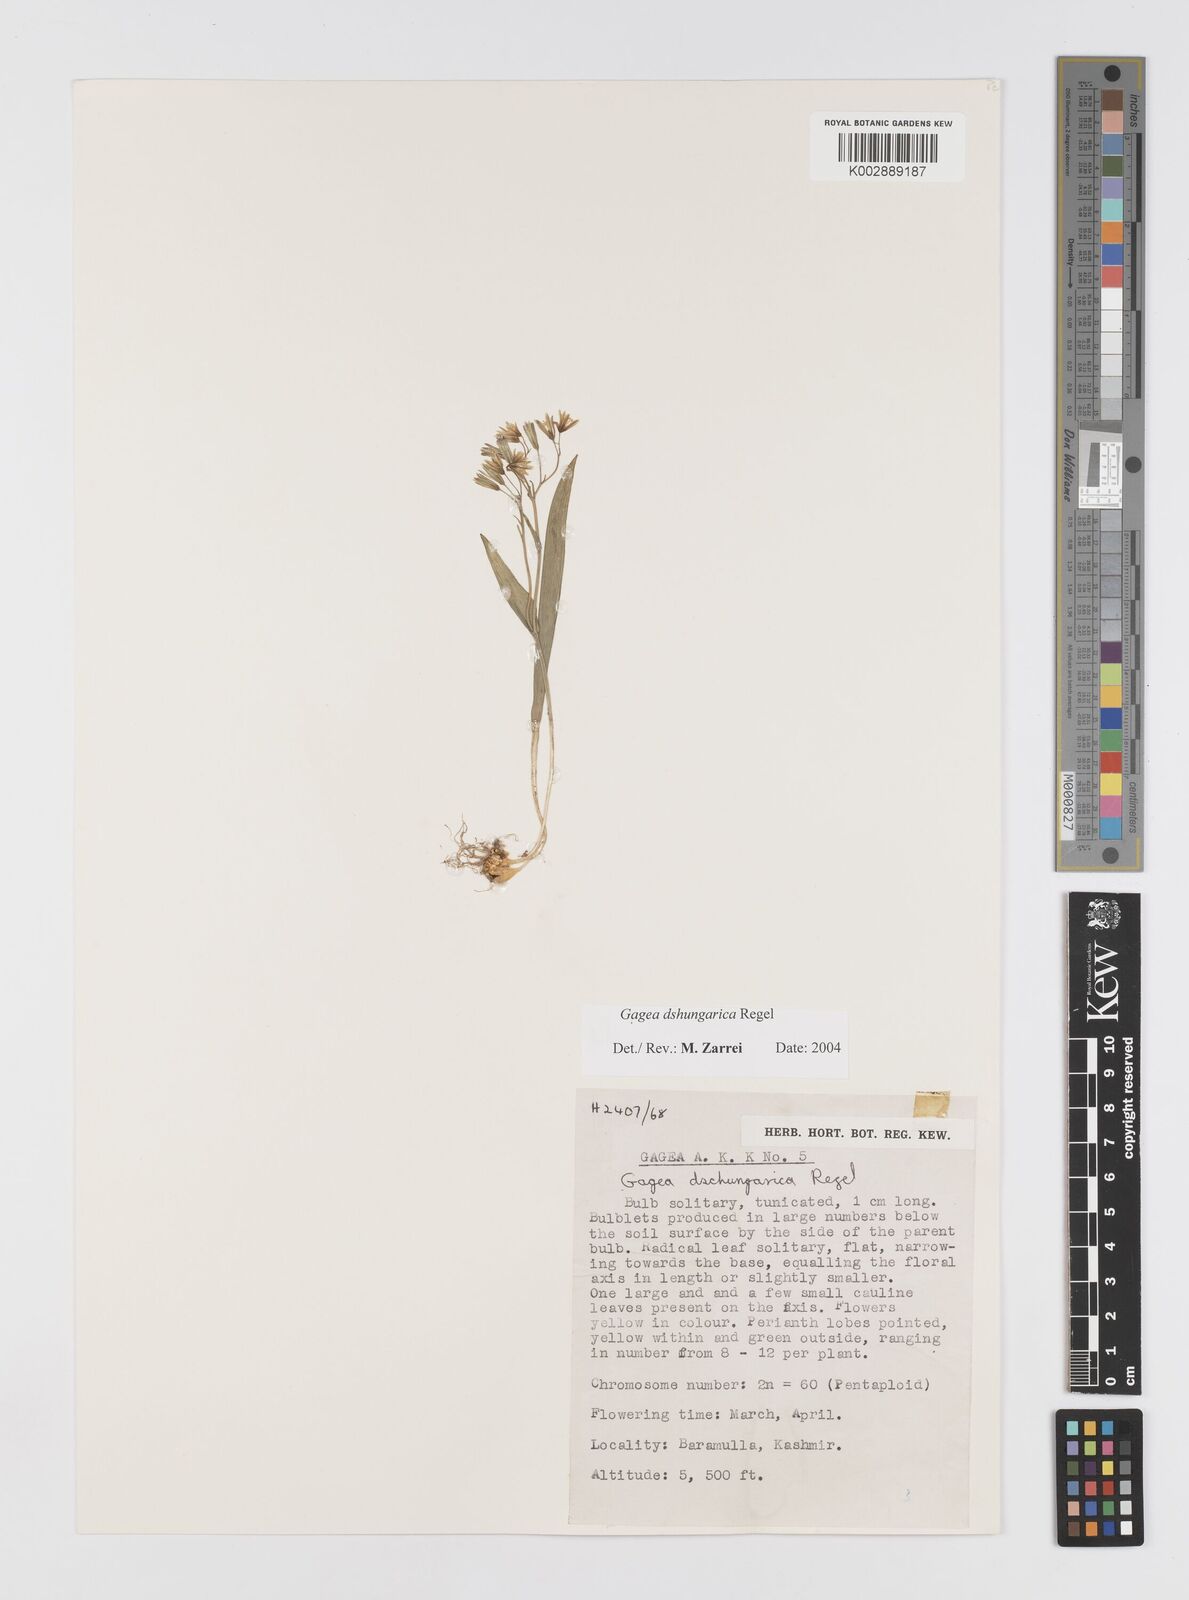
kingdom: Plantae
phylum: Tracheophyta
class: Liliopsida
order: Liliales
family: Liliaceae
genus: Gagea
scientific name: Gagea dschungarica
